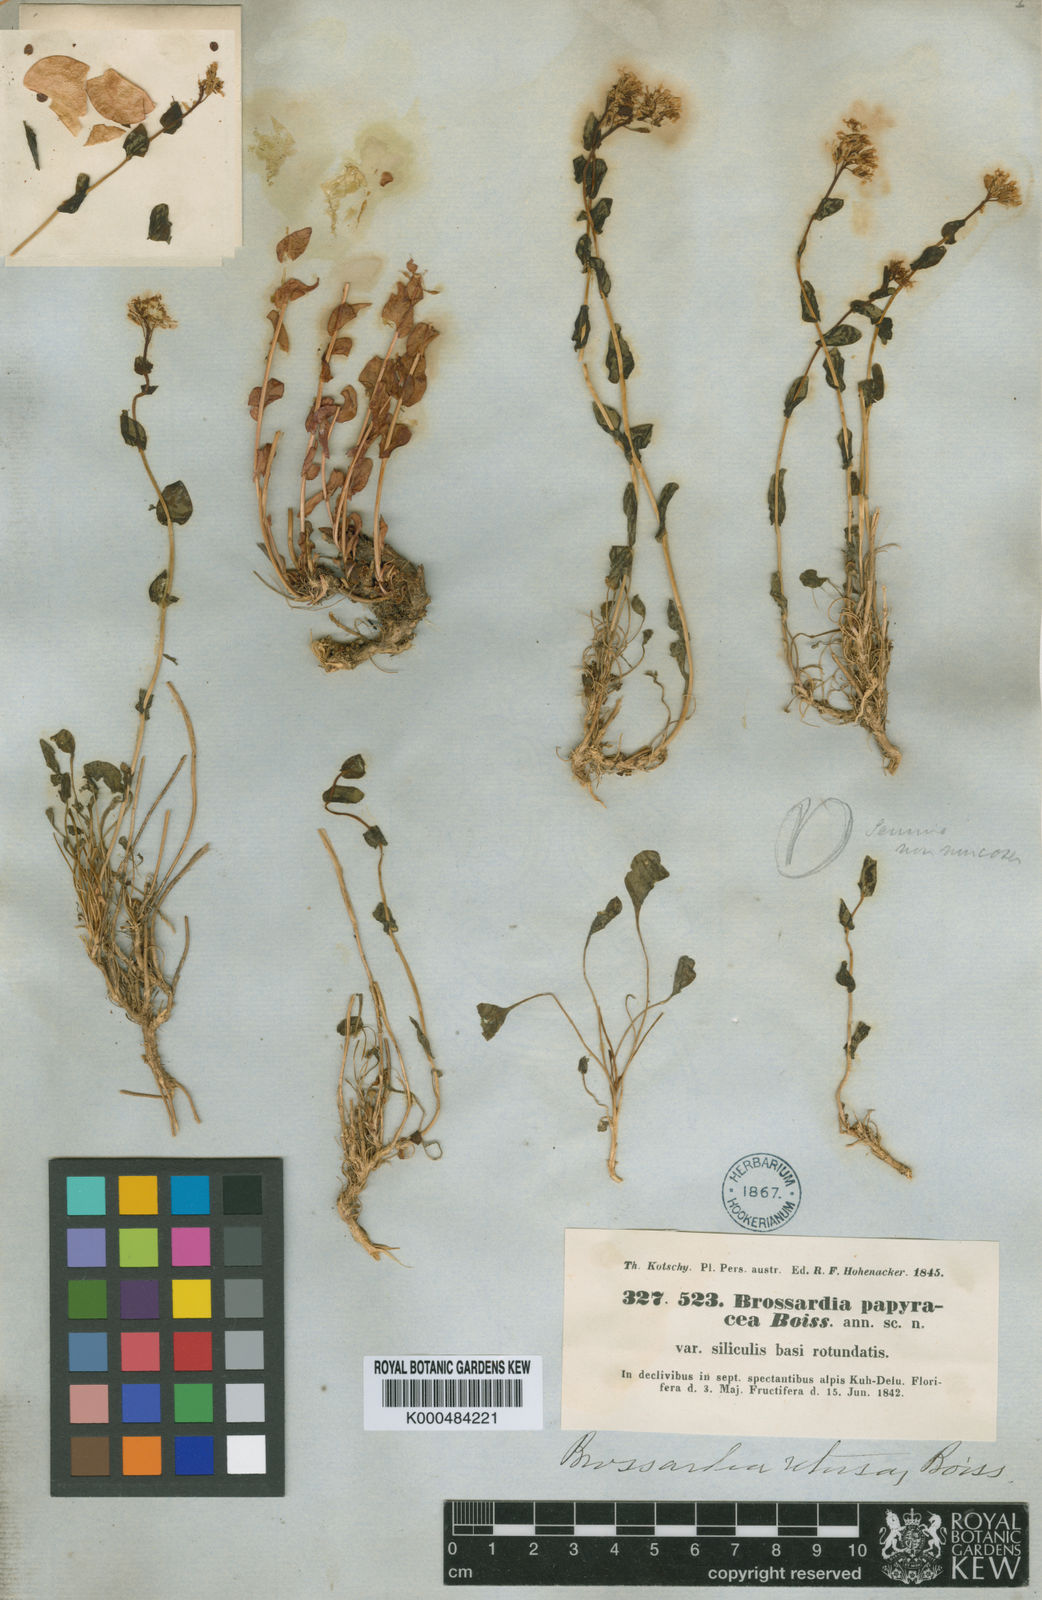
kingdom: Plantae
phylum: Tracheophyta
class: Magnoliopsida
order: Brassicales
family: Brassicaceae
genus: Noccaea
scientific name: Noccaea
